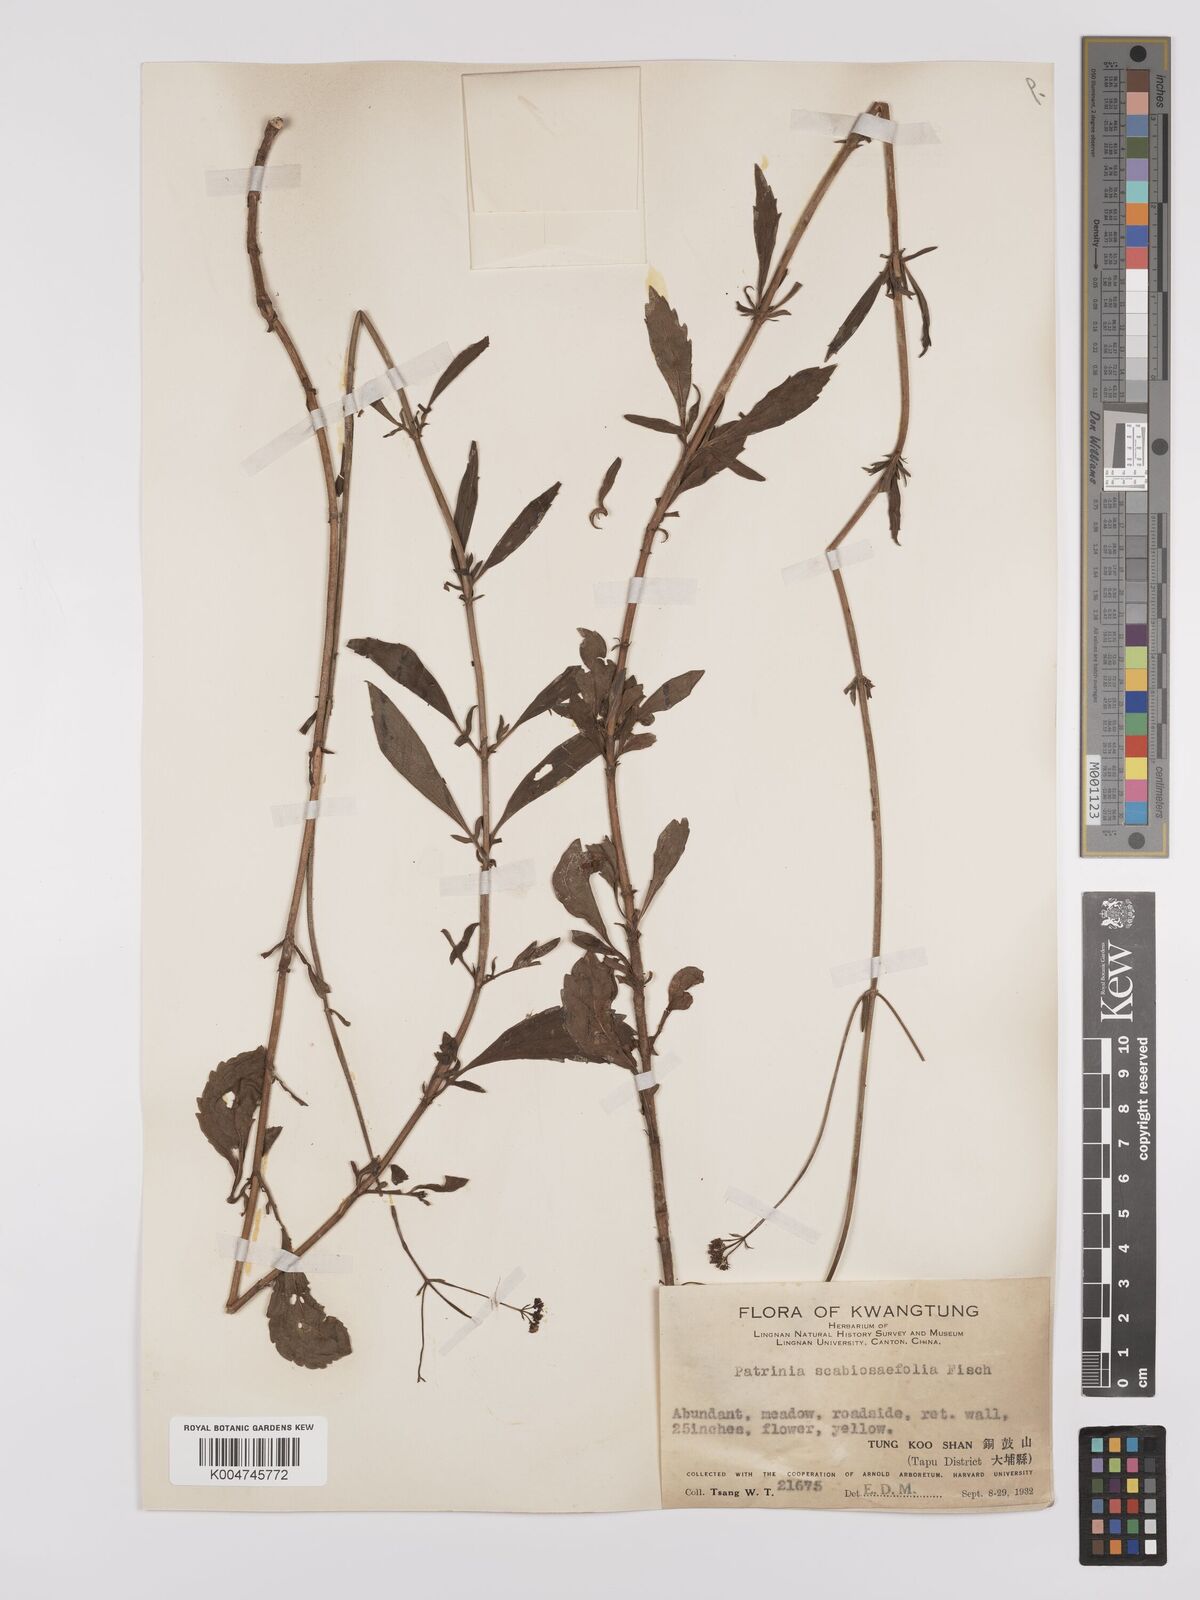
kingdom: Plantae
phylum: Tracheophyta
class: Magnoliopsida
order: Dipsacales
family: Caprifoliaceae
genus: Patrinia
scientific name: Patrinia
